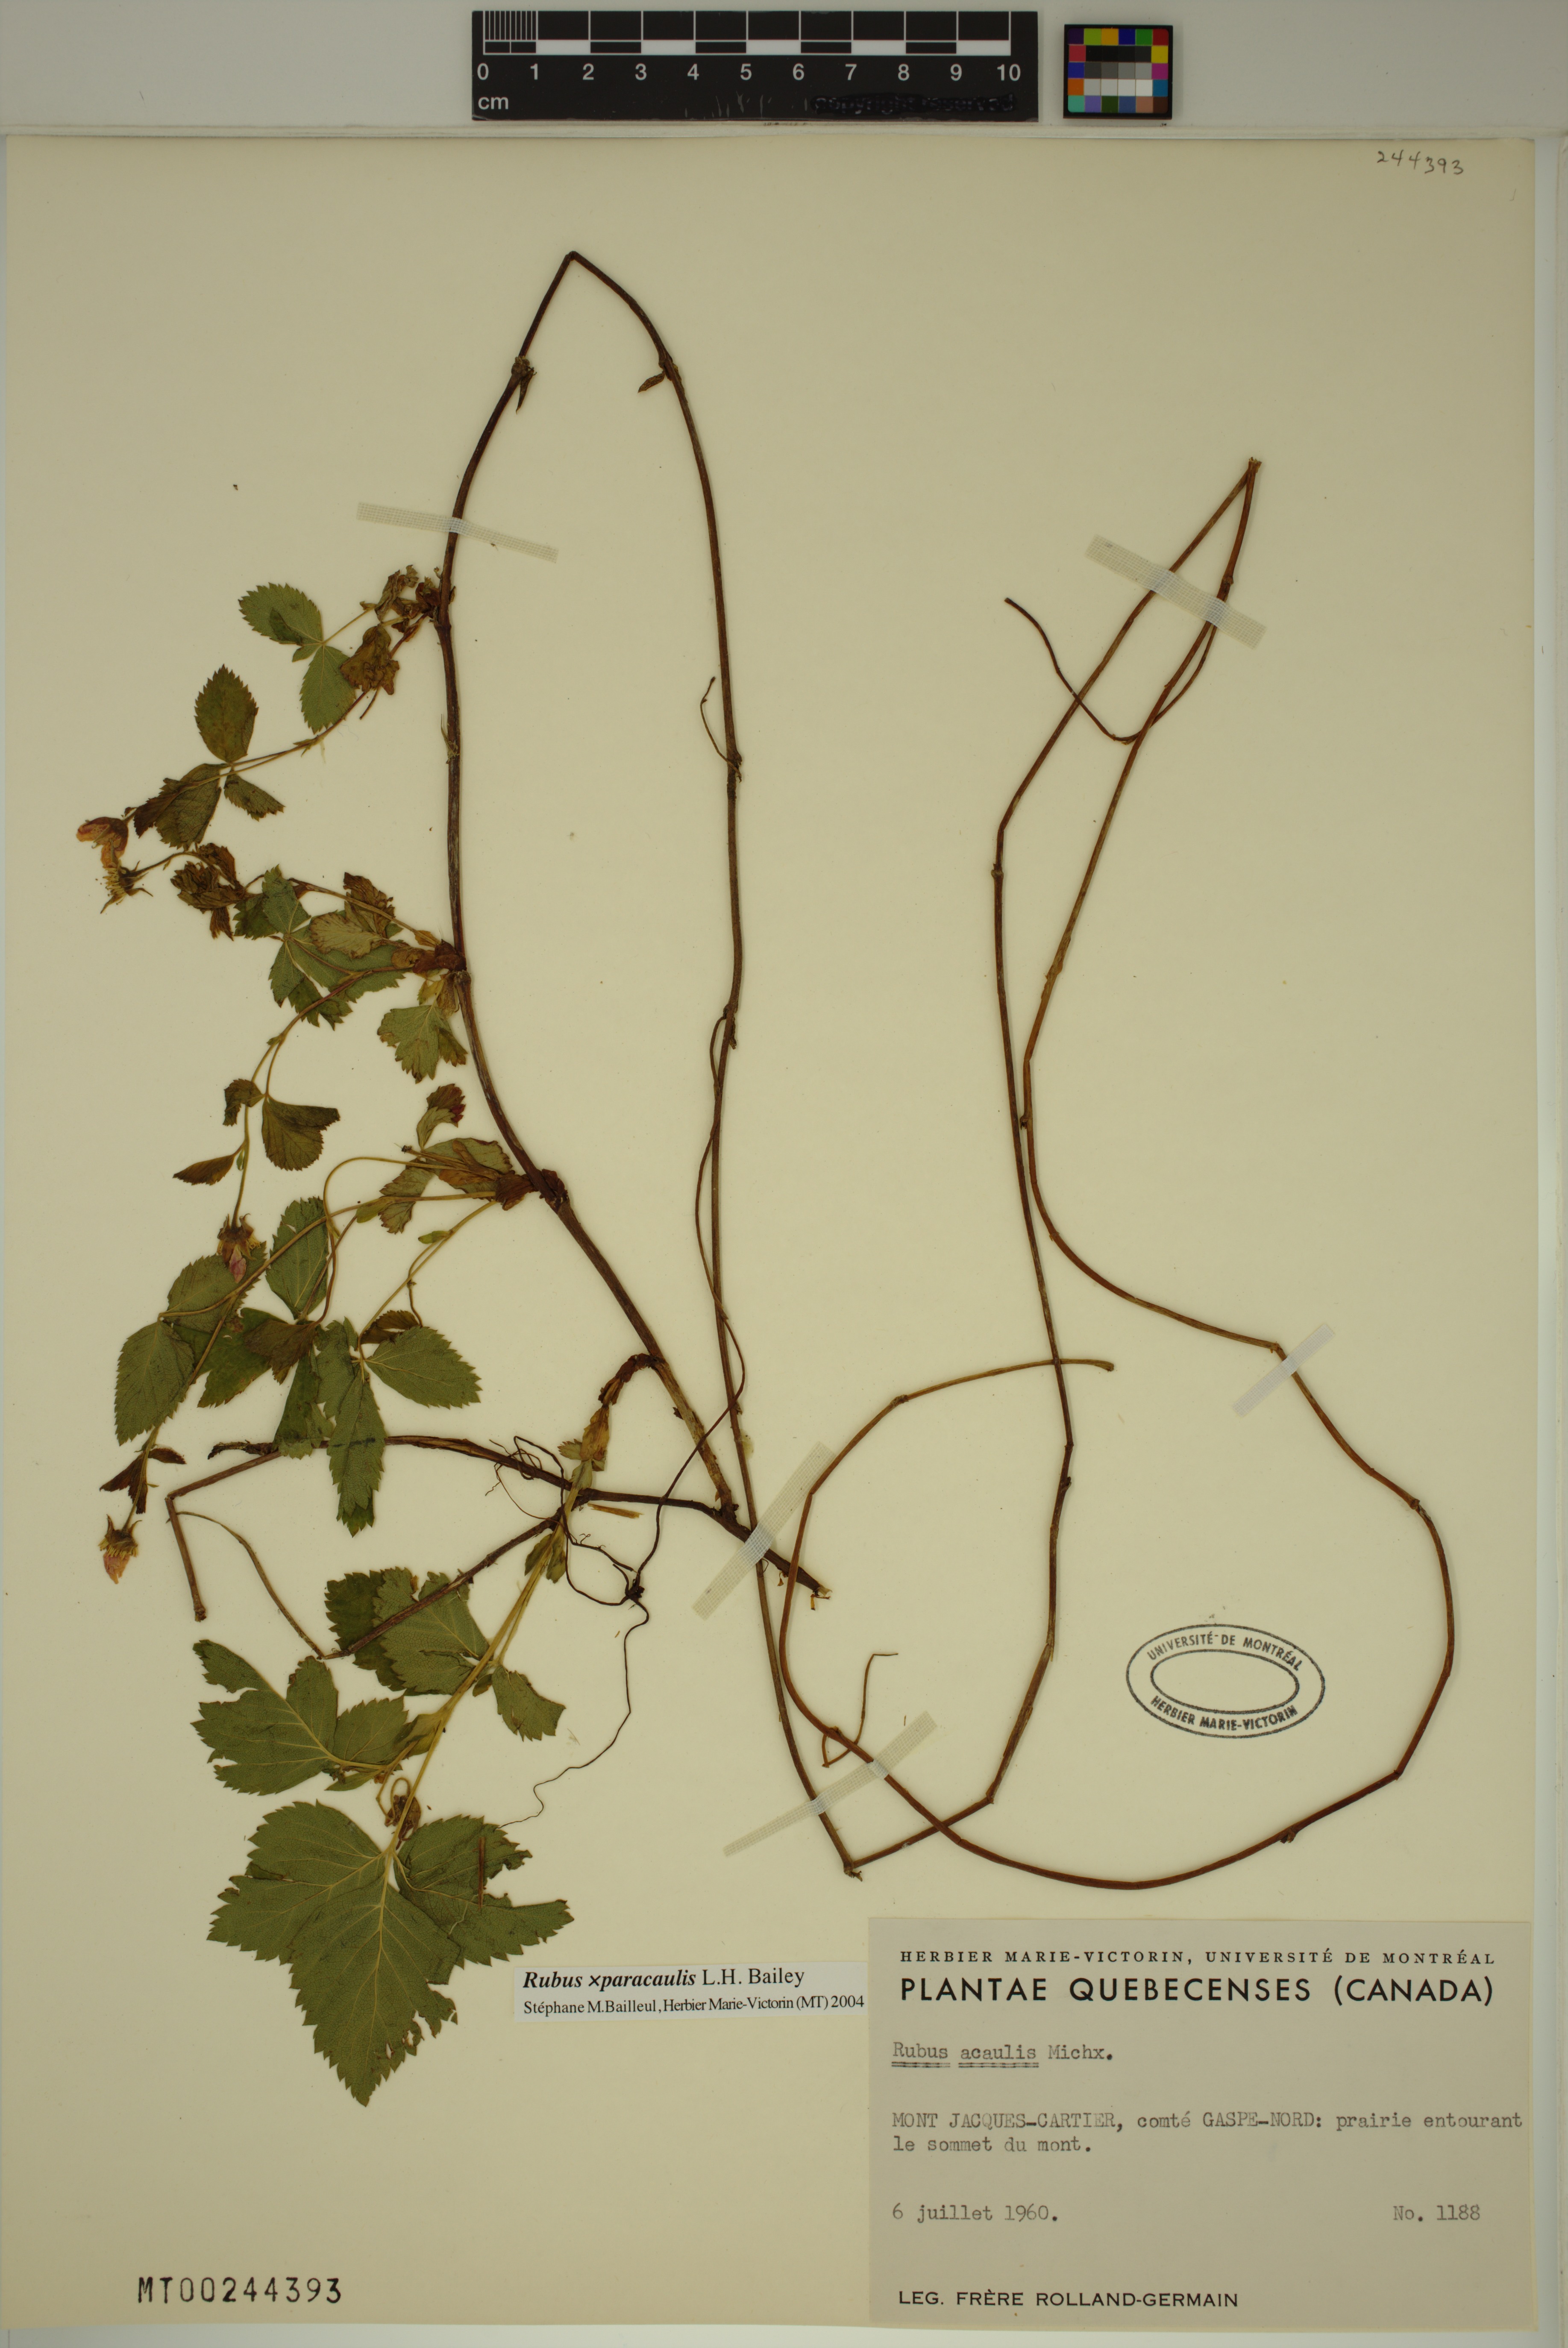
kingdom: Plantae
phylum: Tracheophyta
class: Magnoliopsida
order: Rosales
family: Rosaceae
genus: Rubus
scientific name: Rubus paracaulis
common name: Dwarf white-flowered raspberry
